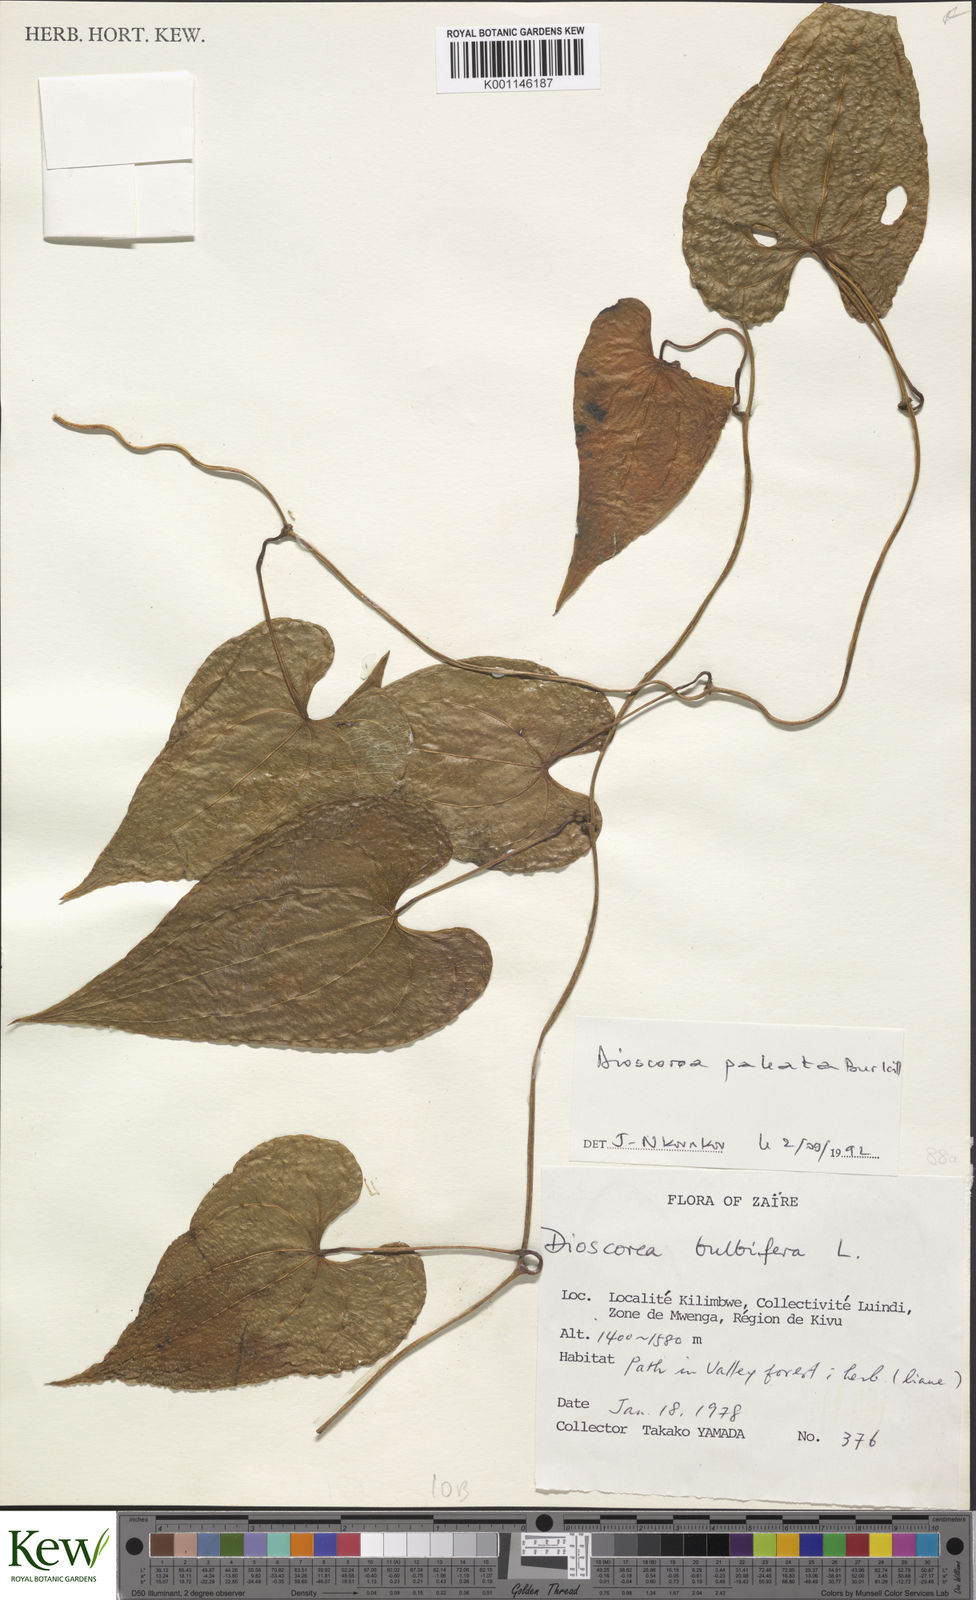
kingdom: Plantae
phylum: Tracheophyta
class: Liliopsida
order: Dioscoreales
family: Dioscoreaceae
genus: Dioscorea
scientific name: Dioscorea paleata
